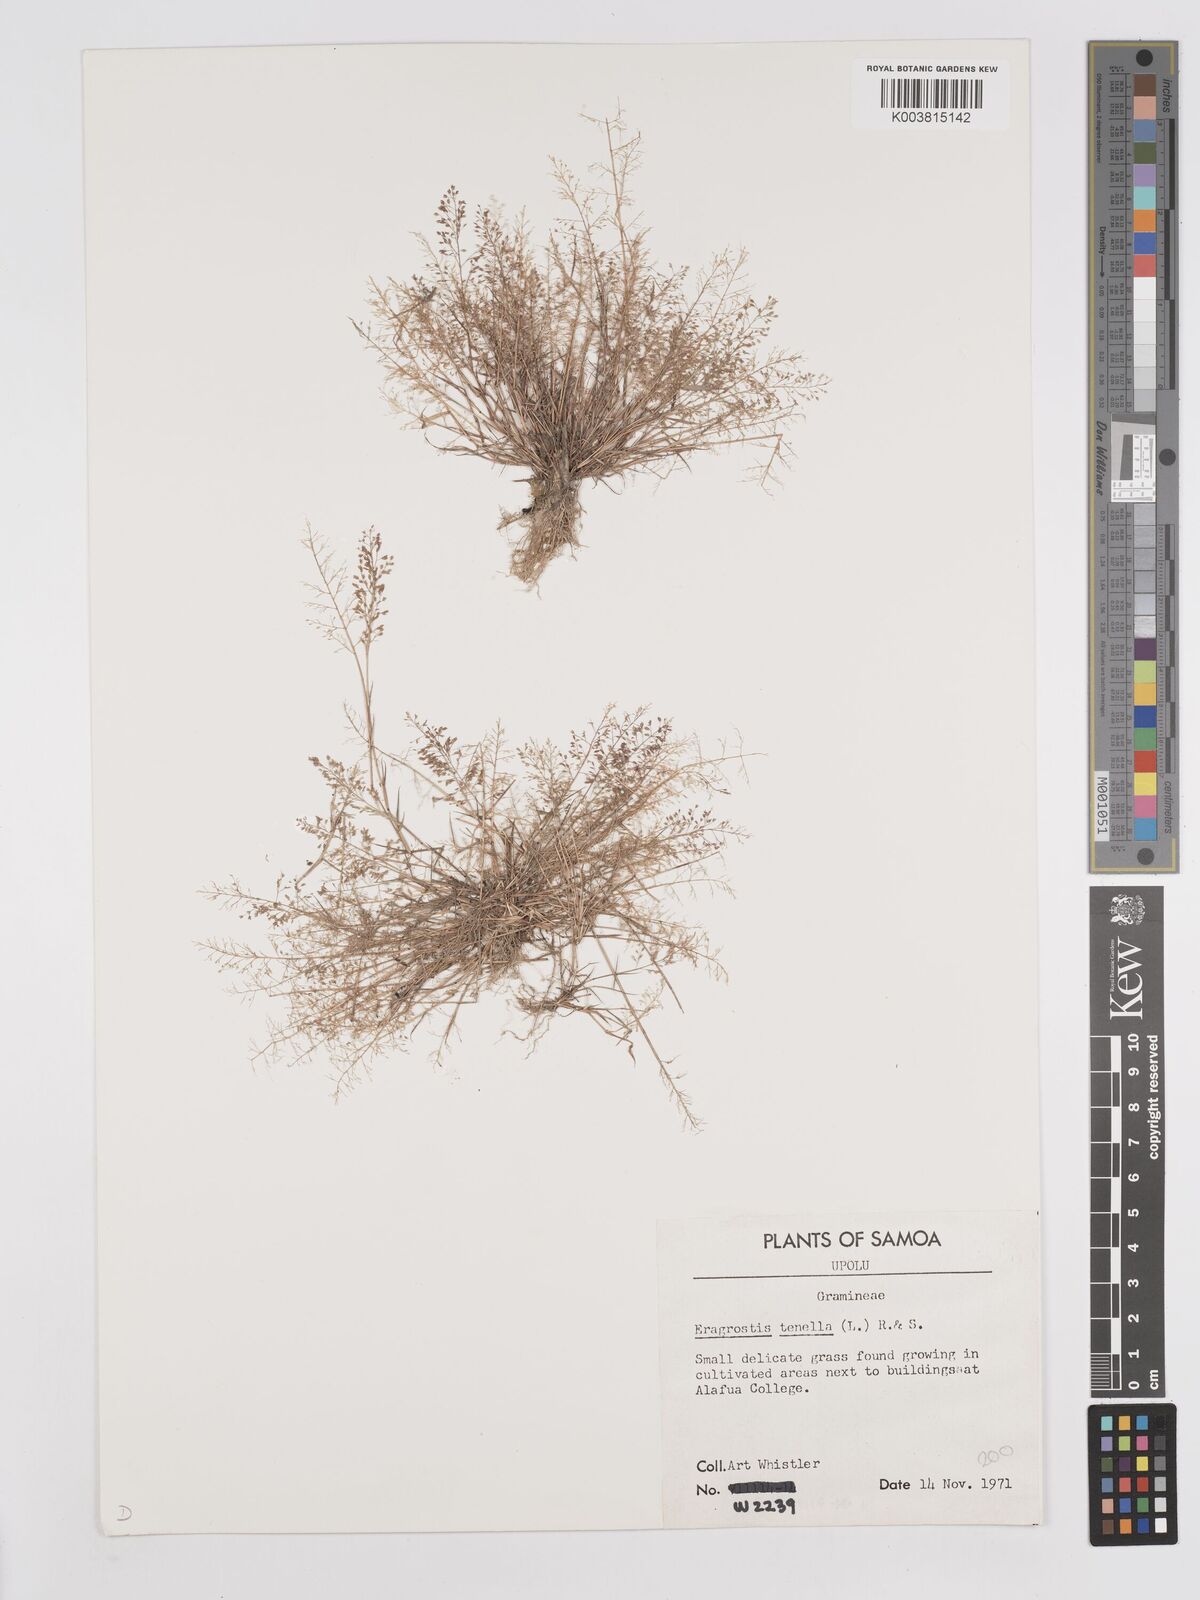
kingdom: Plantae
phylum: Tracheophyta
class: Liliopsida
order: Poales
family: Poaceae
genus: Eragrostis
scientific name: Eragrostis tenella
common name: Japanese lovegrass
